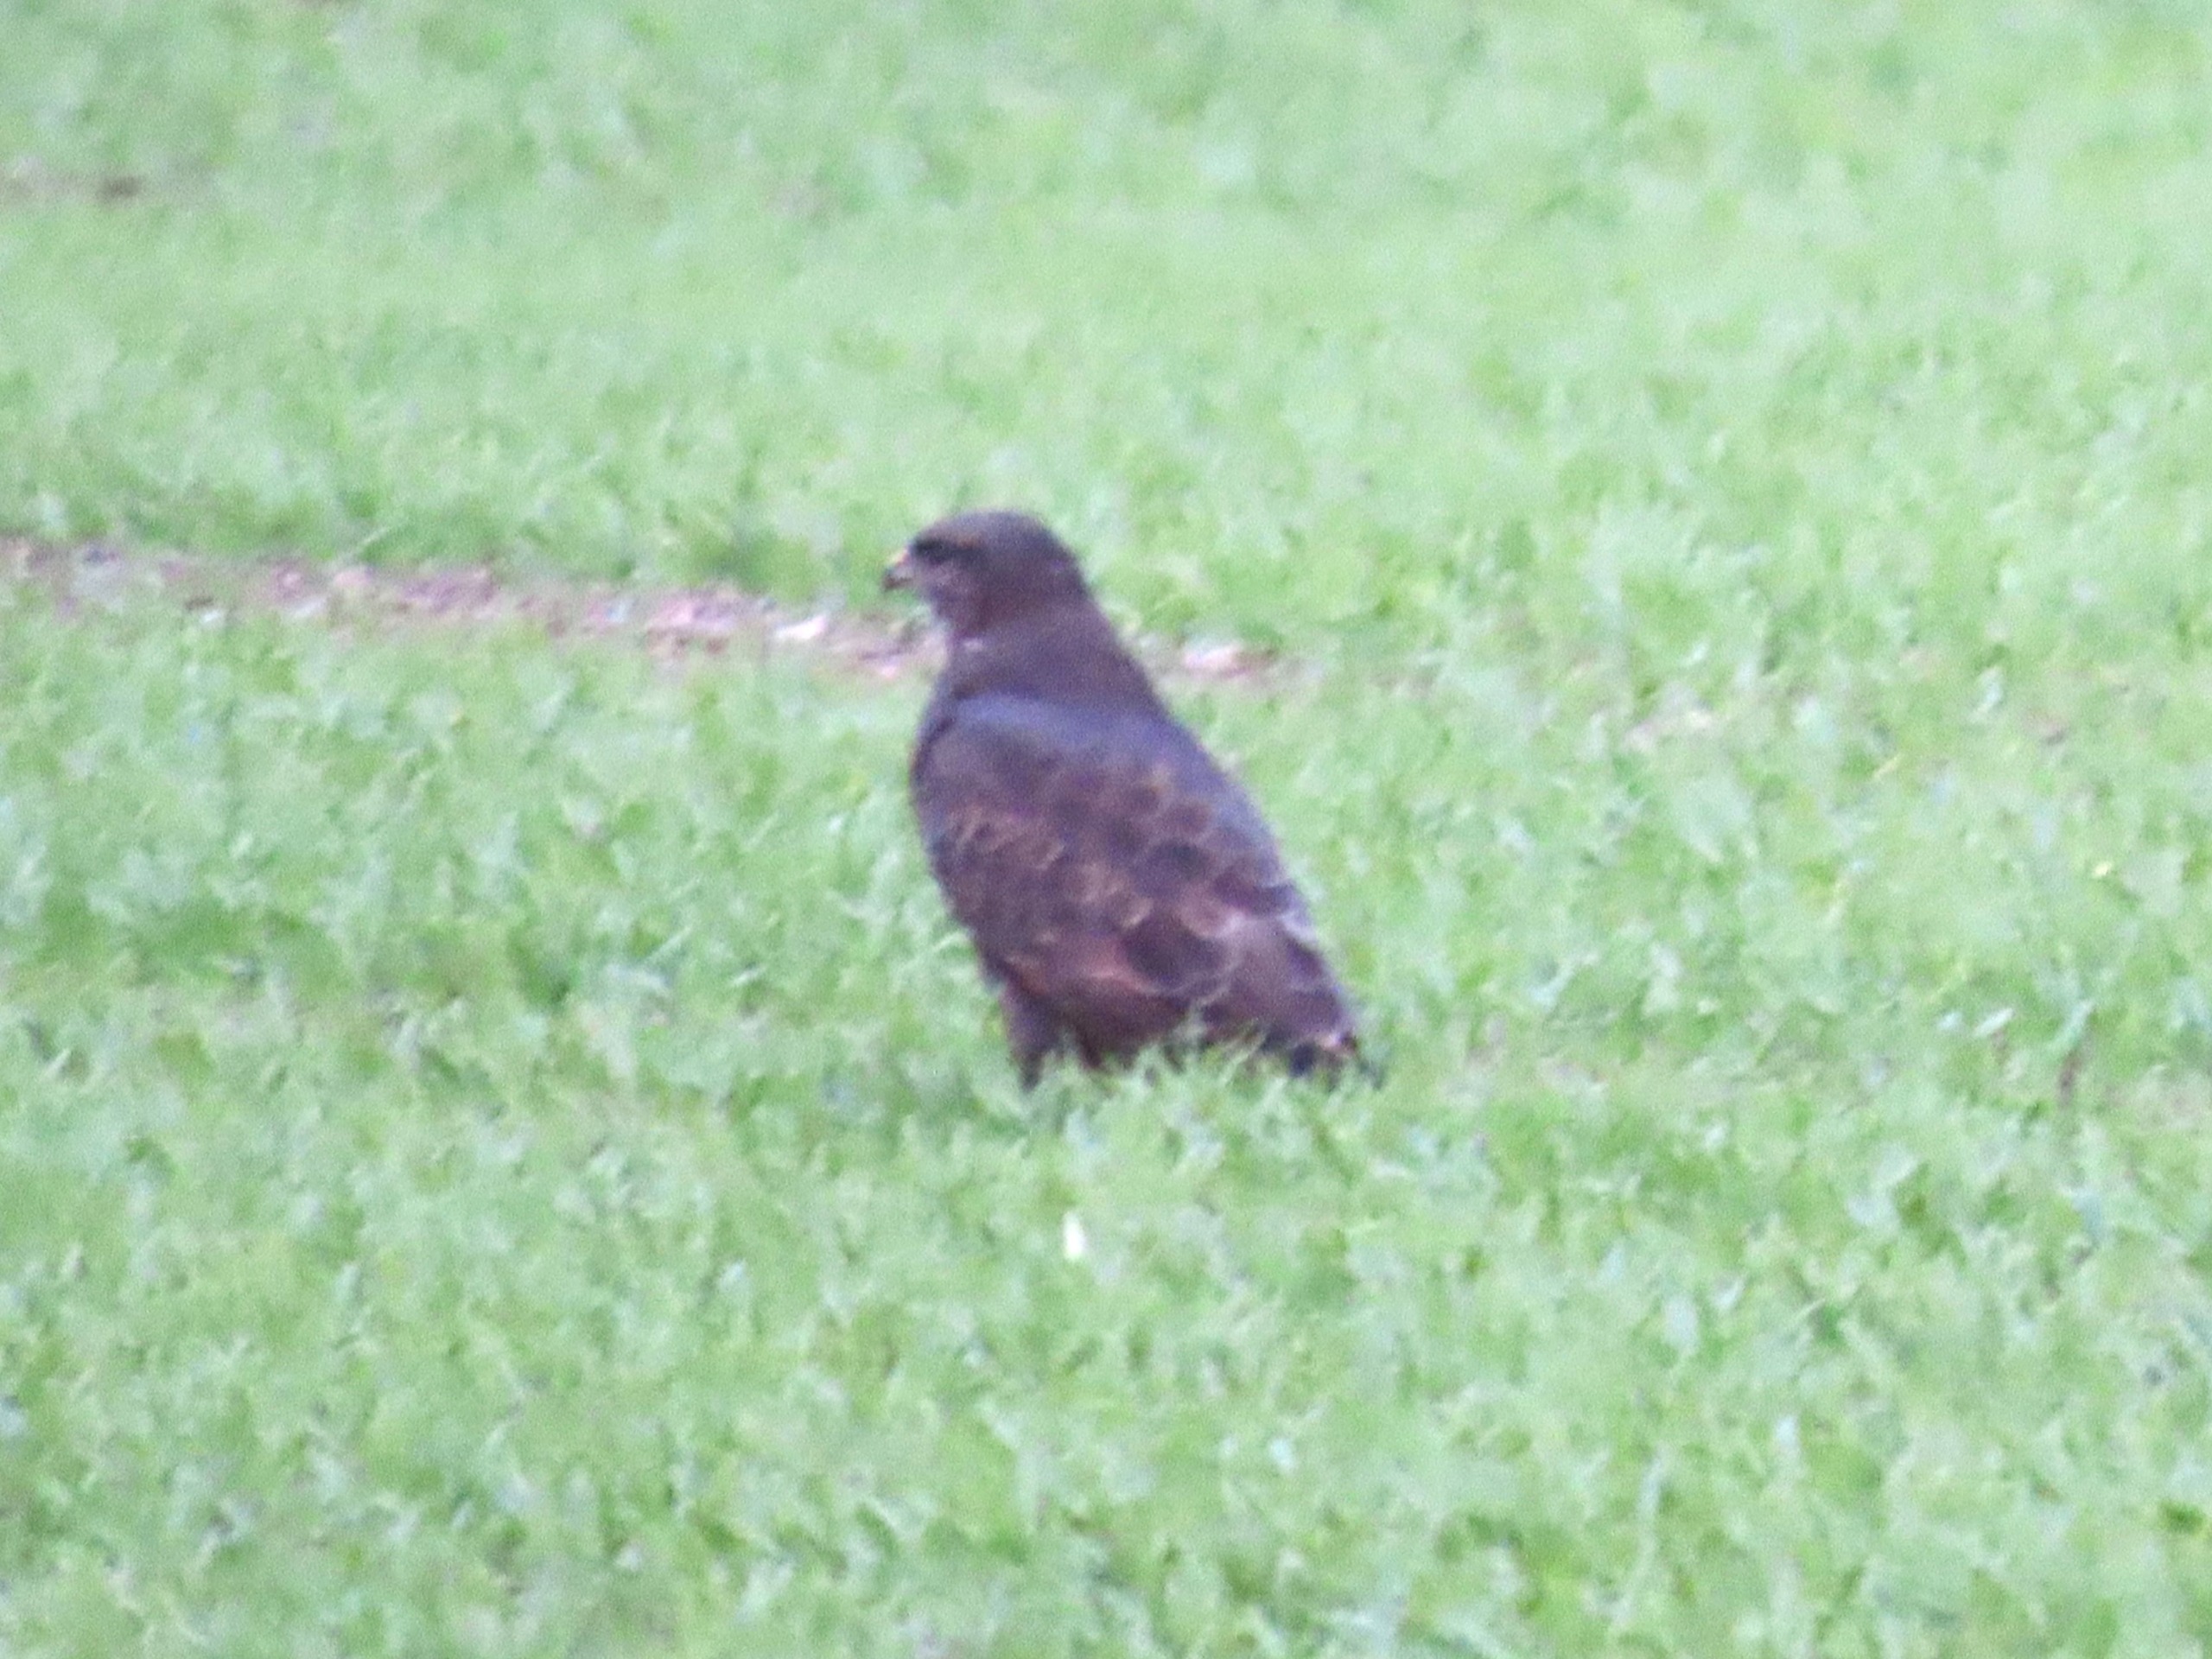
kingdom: Animalia
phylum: Chordata
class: Aves
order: Accipitriformes
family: Accipitridae
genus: Buteo
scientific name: Buteo buteo
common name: Musvåge
